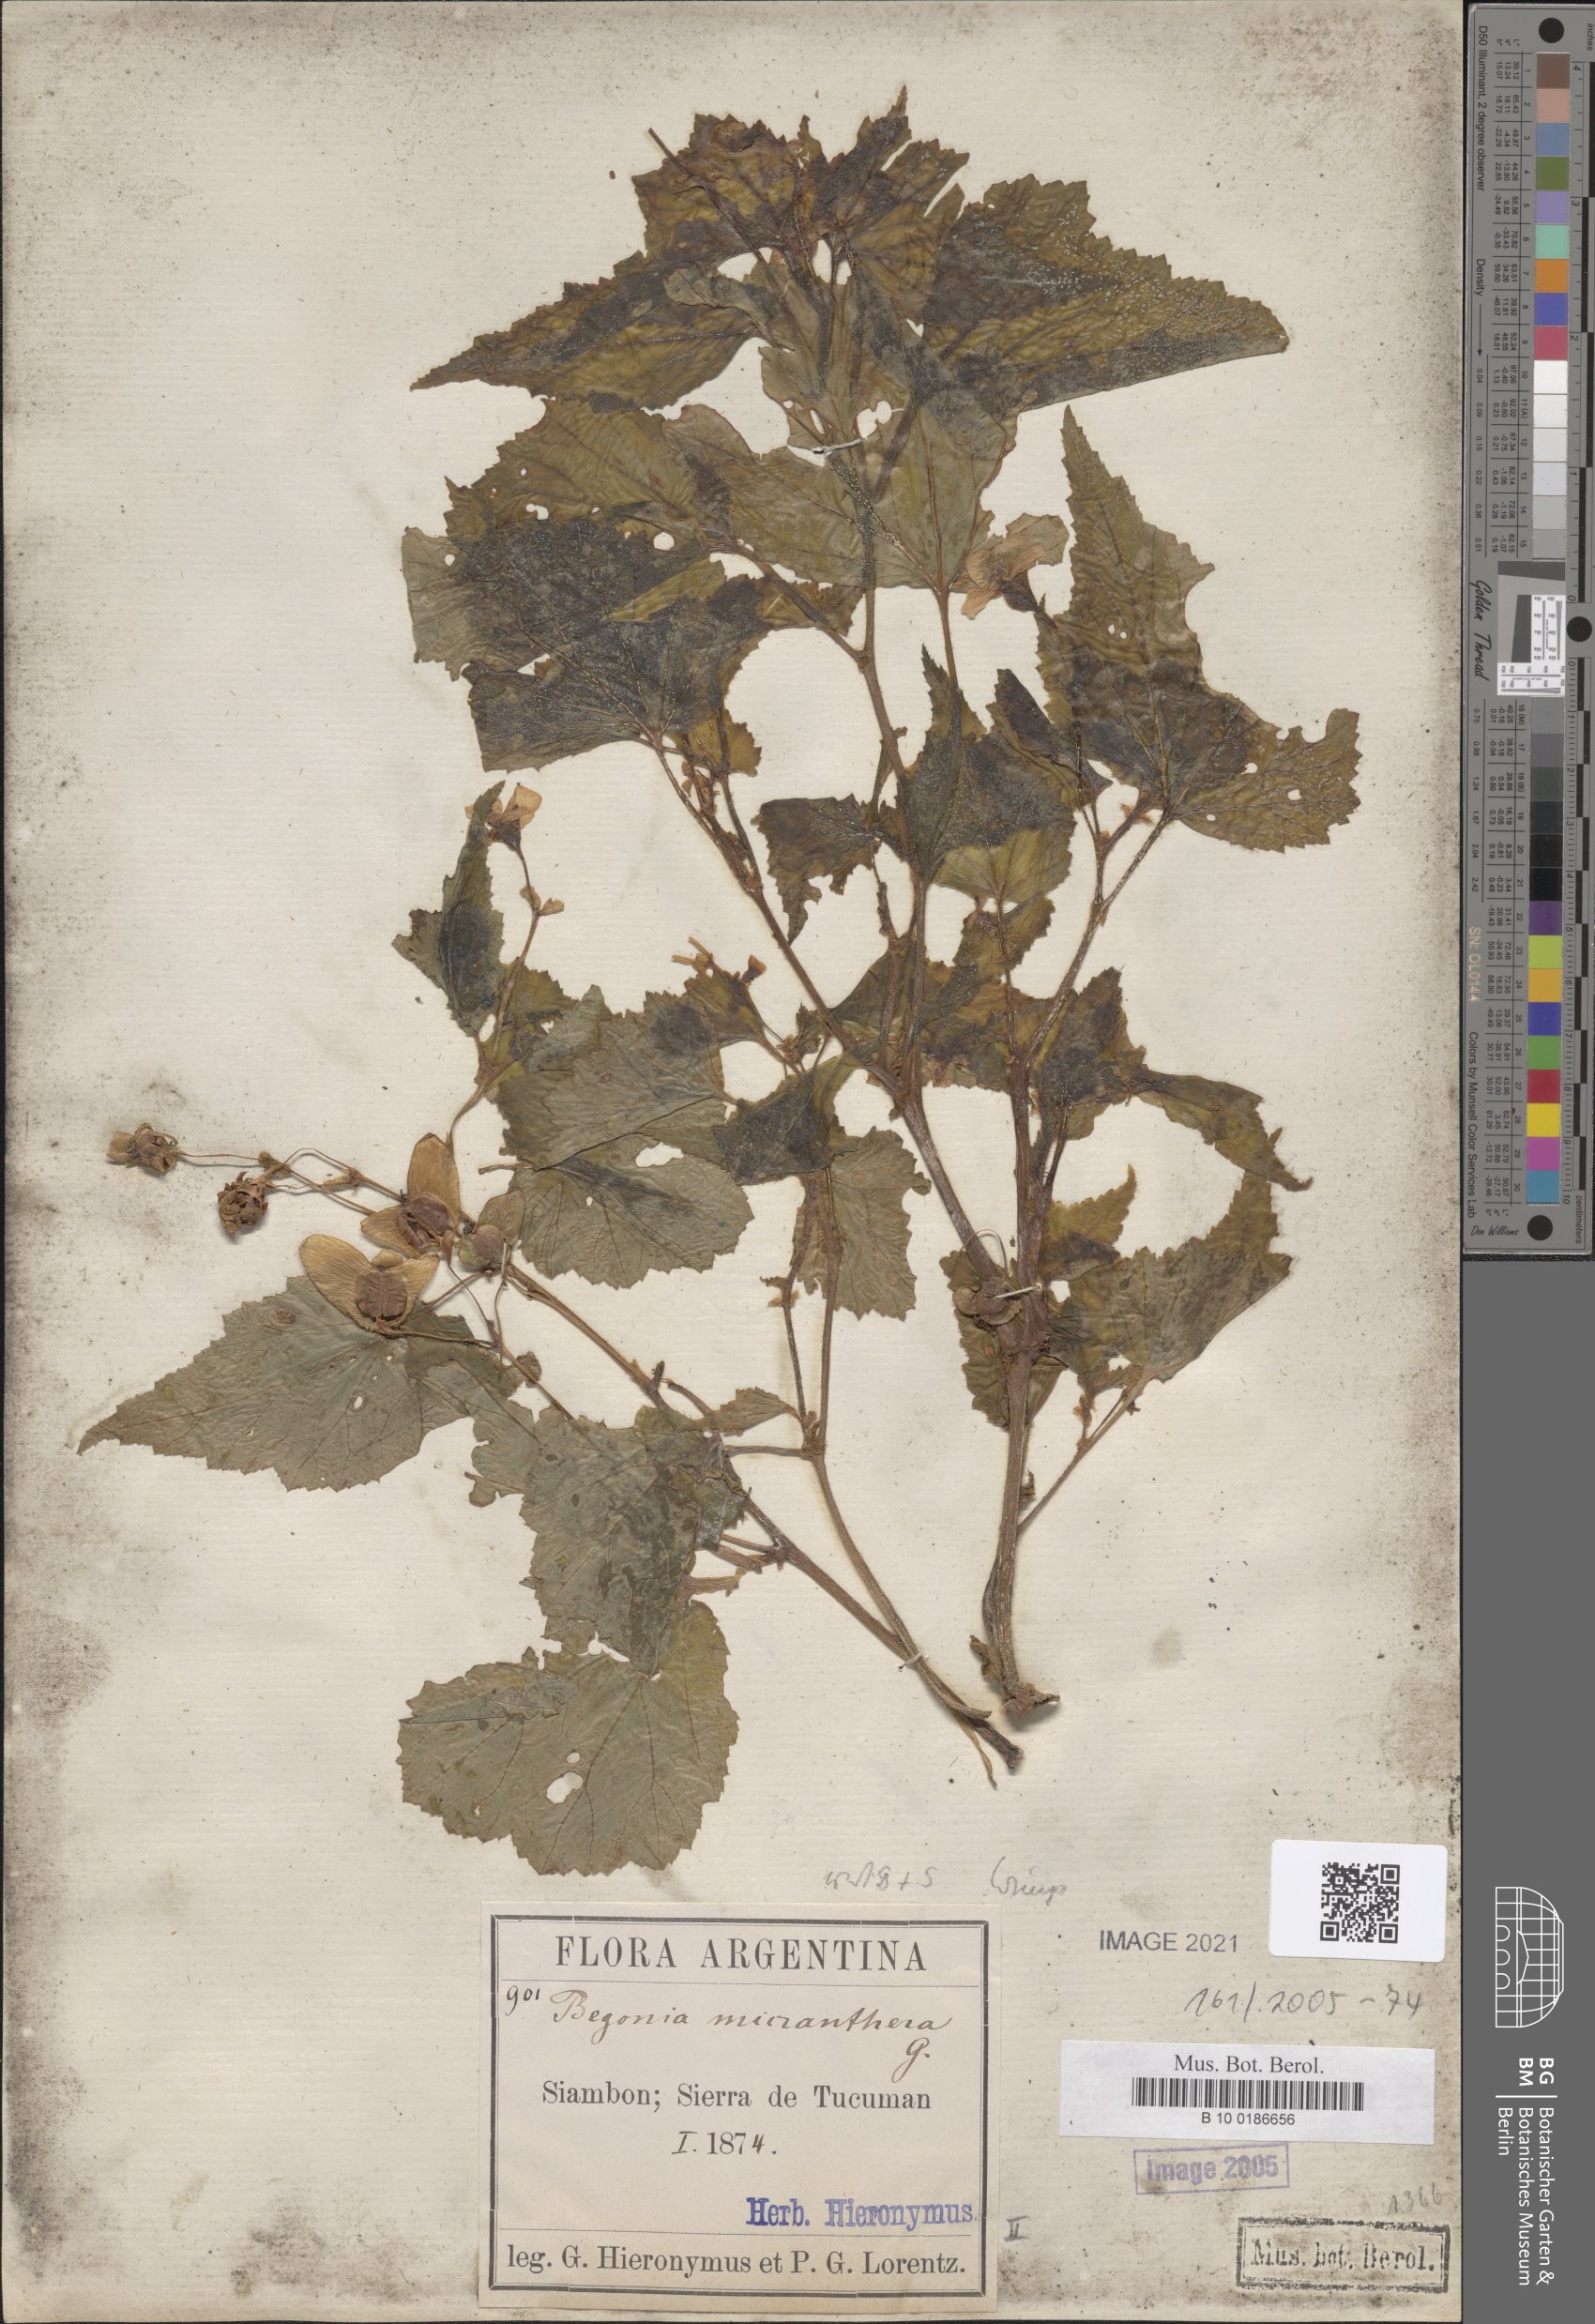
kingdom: Plantae
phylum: Tracheophyta
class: Magnoliopsida
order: Cucurbitales
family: Begoniaceae
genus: Begonia
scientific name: Begonia micranthera
